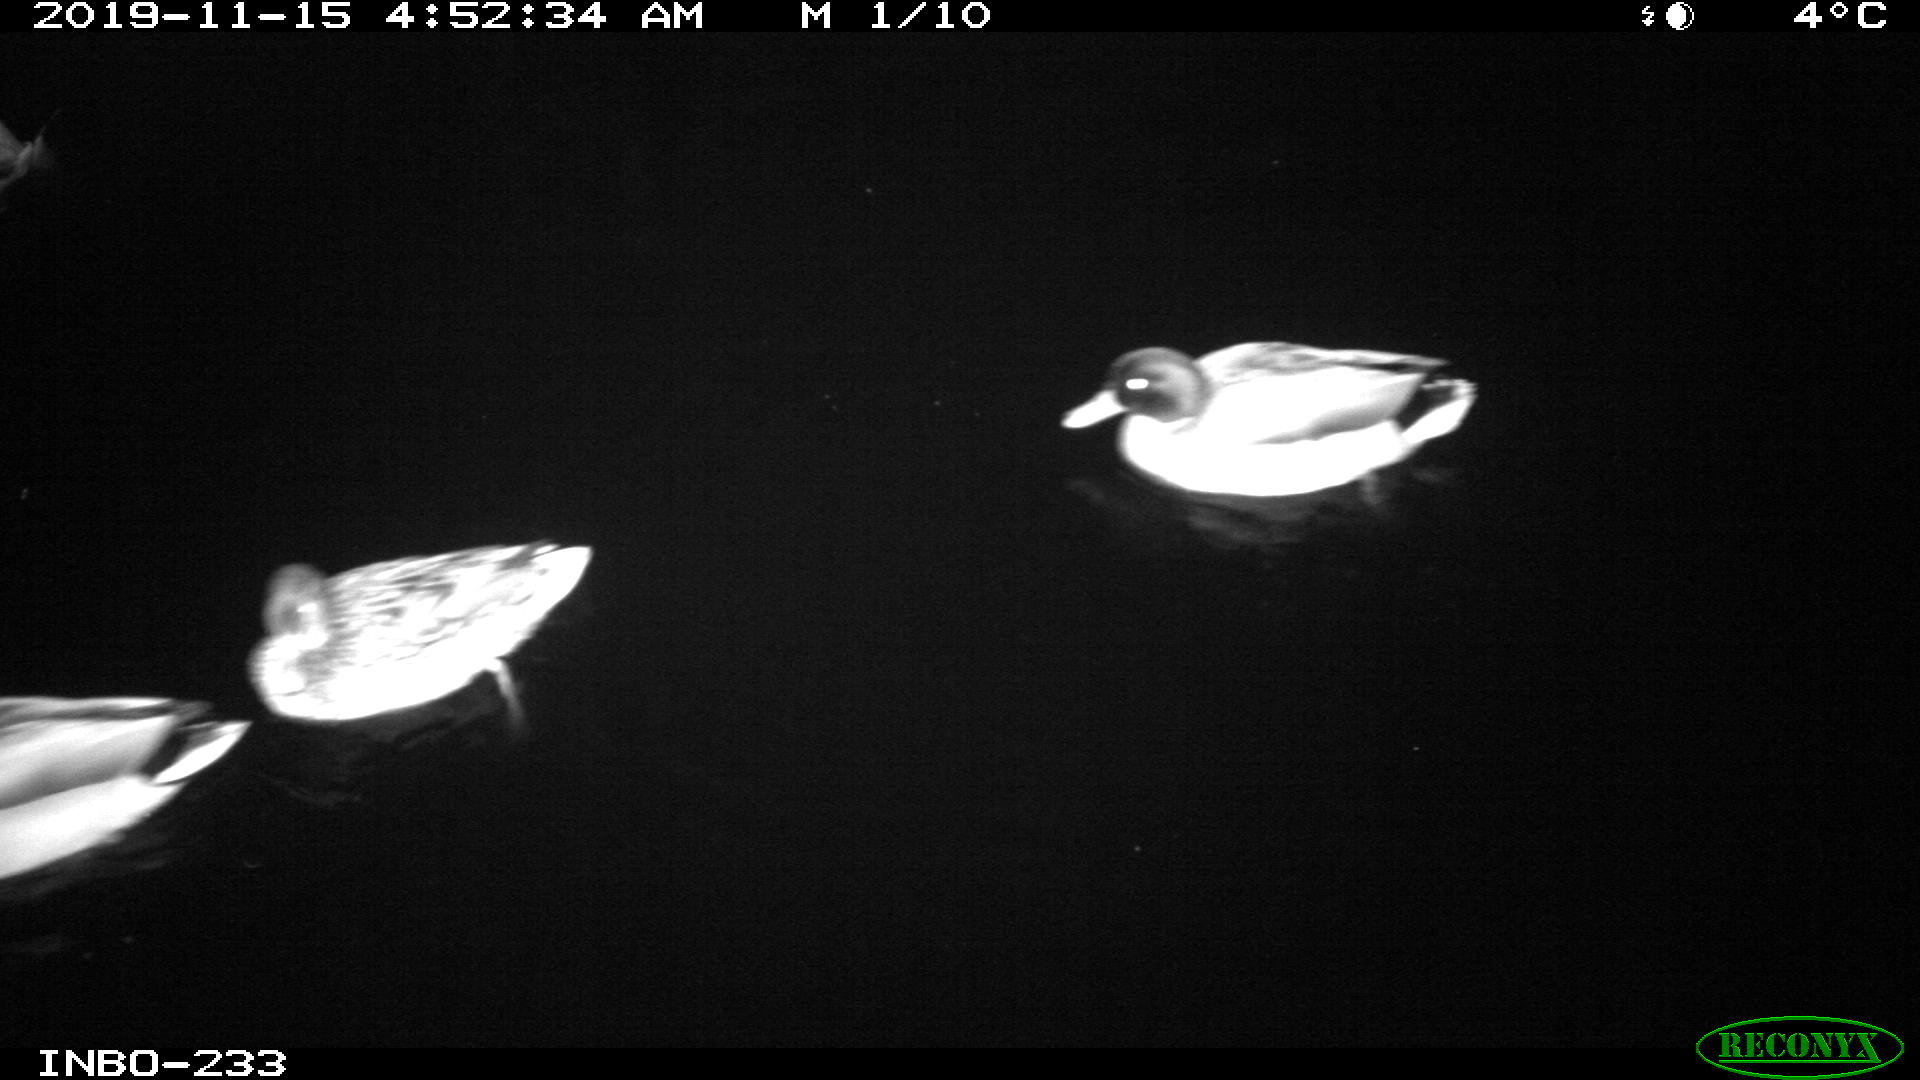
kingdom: Animalia
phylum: Chordata
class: Aves
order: Anseriformes
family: Anatidae
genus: Anas
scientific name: Anas platyrhynchos
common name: Mallard
